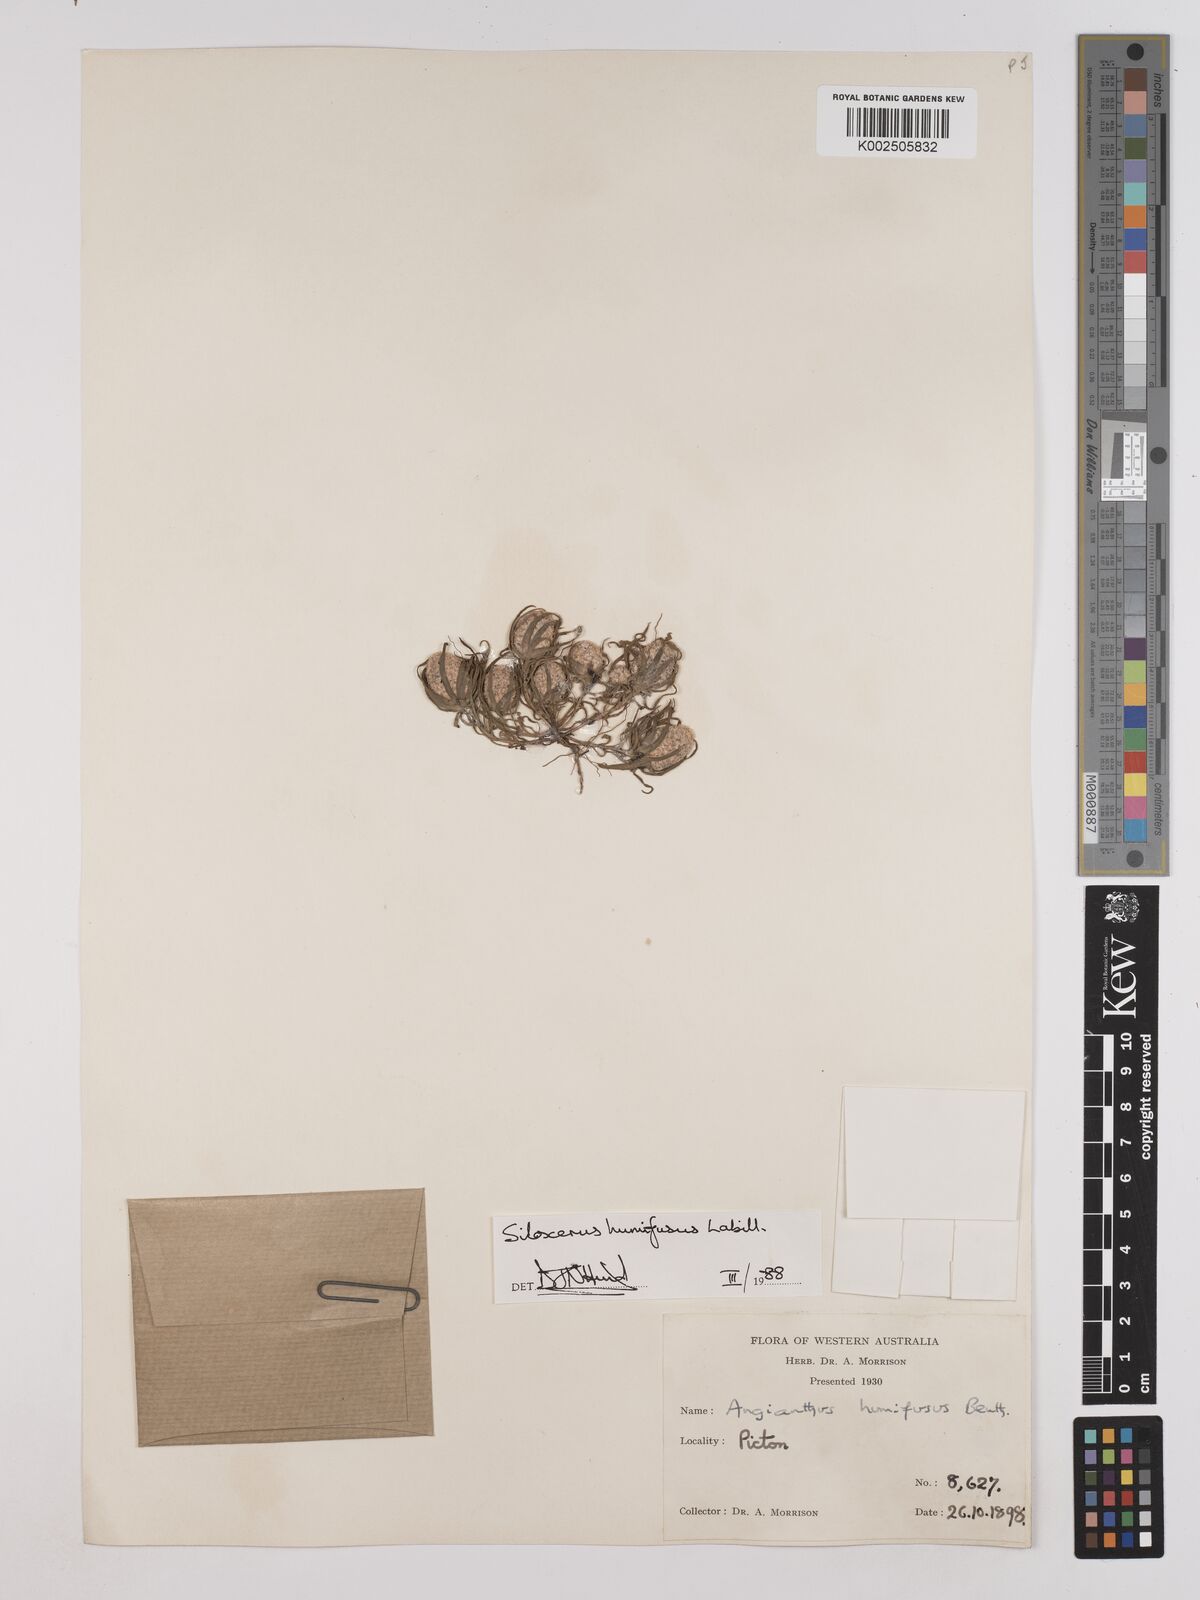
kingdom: Plantae
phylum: Tracheophyta
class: Magnoliopsida
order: Asterales
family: Asteraceae
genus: Siloxerus
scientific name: Siloxerus humifusus
